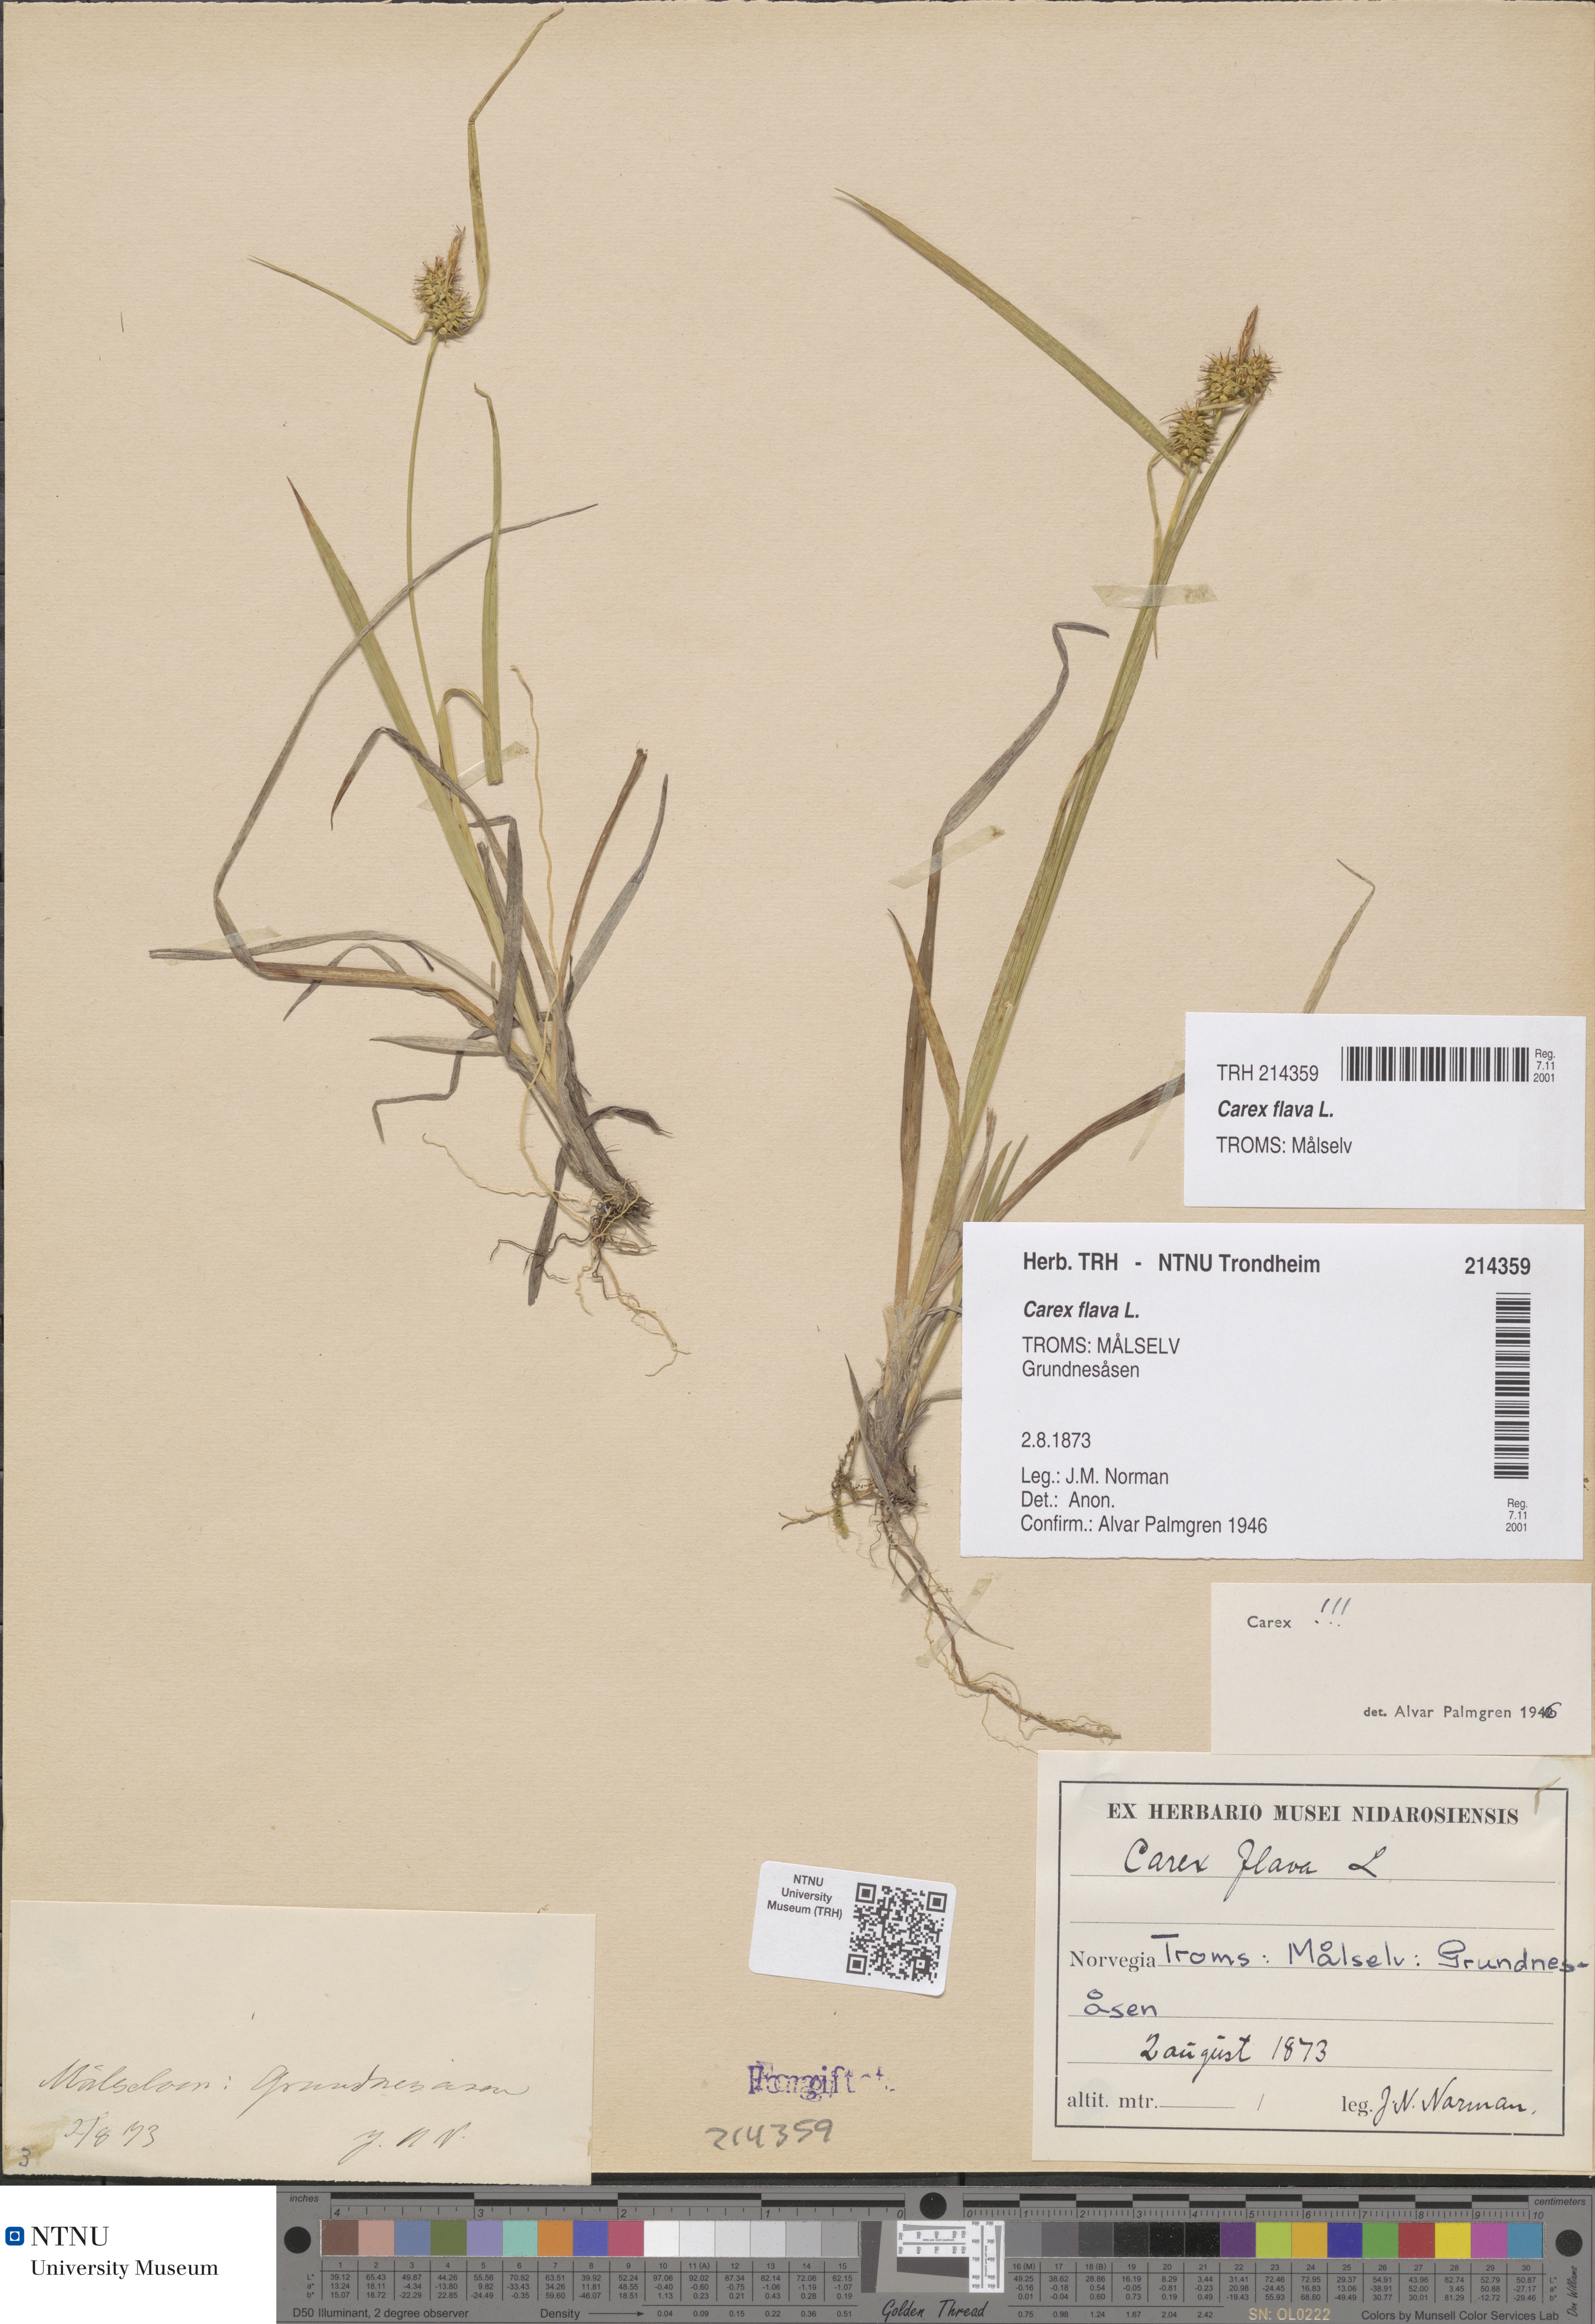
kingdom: Plantae
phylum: Tracheophyta
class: Liliopsida
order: Poales
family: Cyperaceae
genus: Carex
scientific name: Carex flava
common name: Large yellow-sedge
